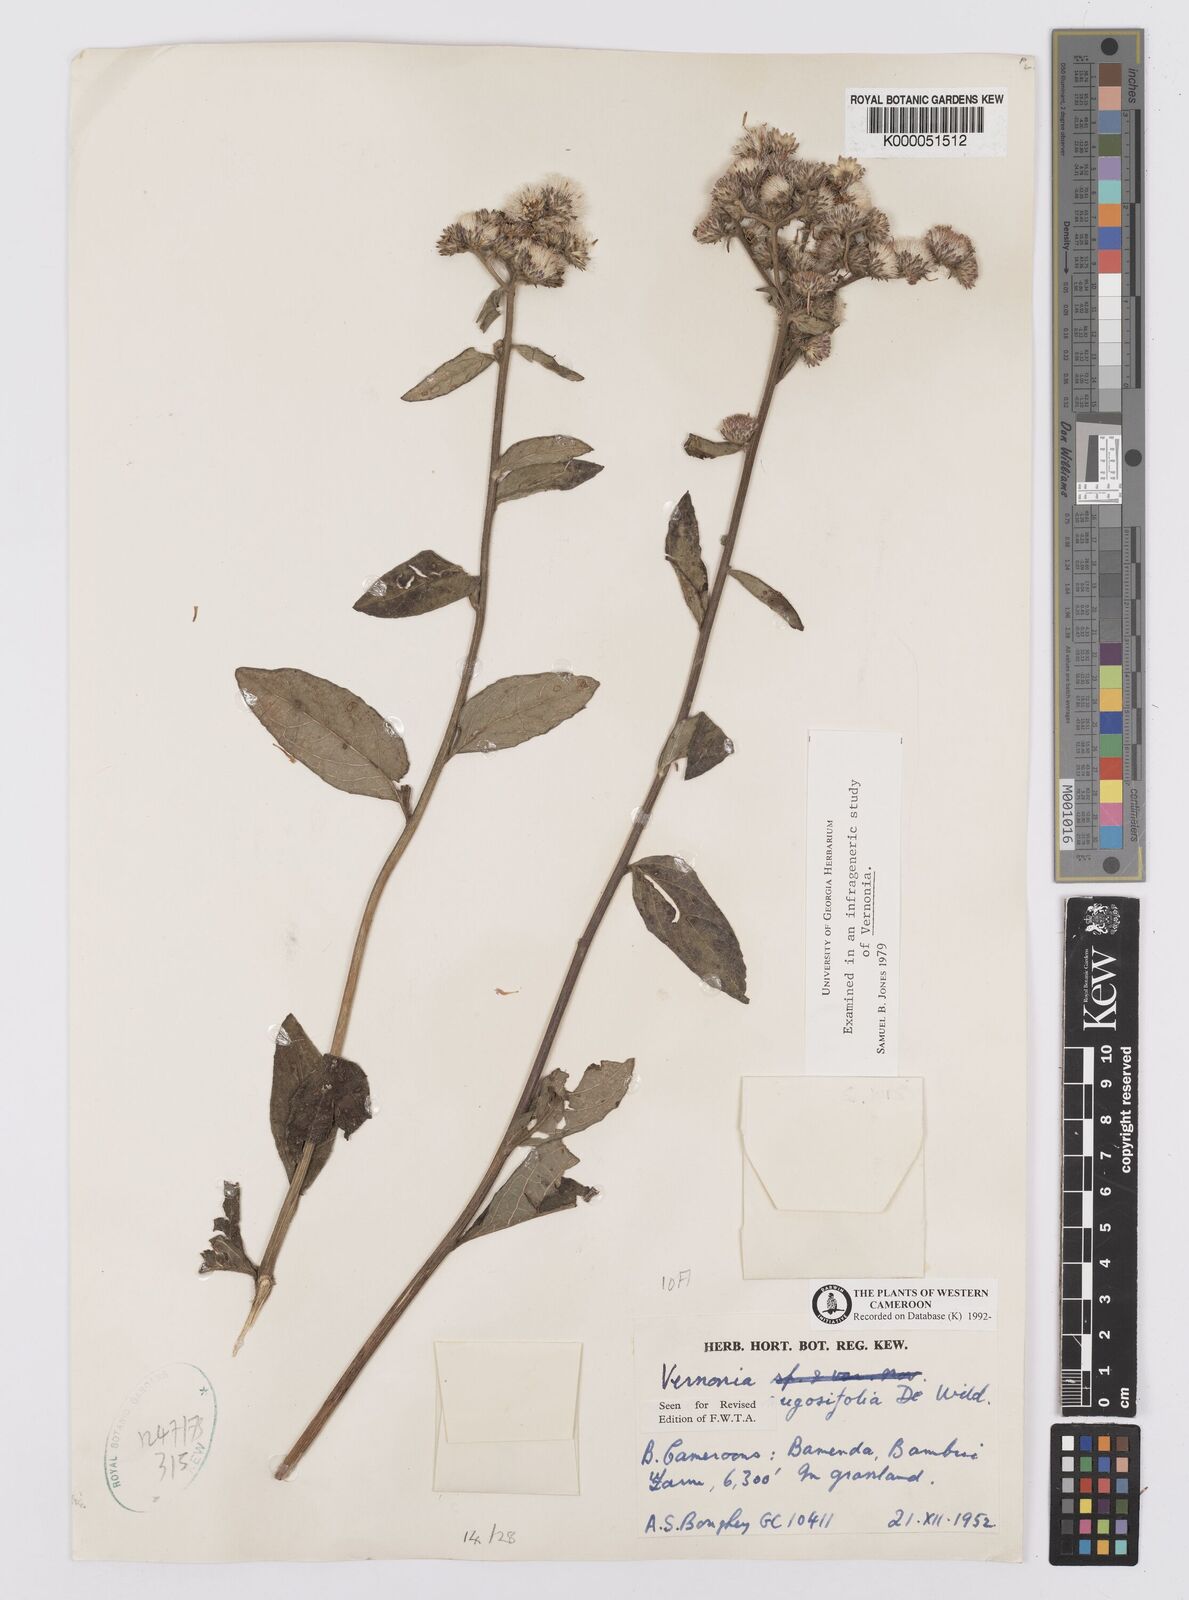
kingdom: Plantae
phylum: Tracheophyta
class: Magnoliopsida
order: Asterales
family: Asteraceae
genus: Orbivestus
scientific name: Orbivestus turbinata
